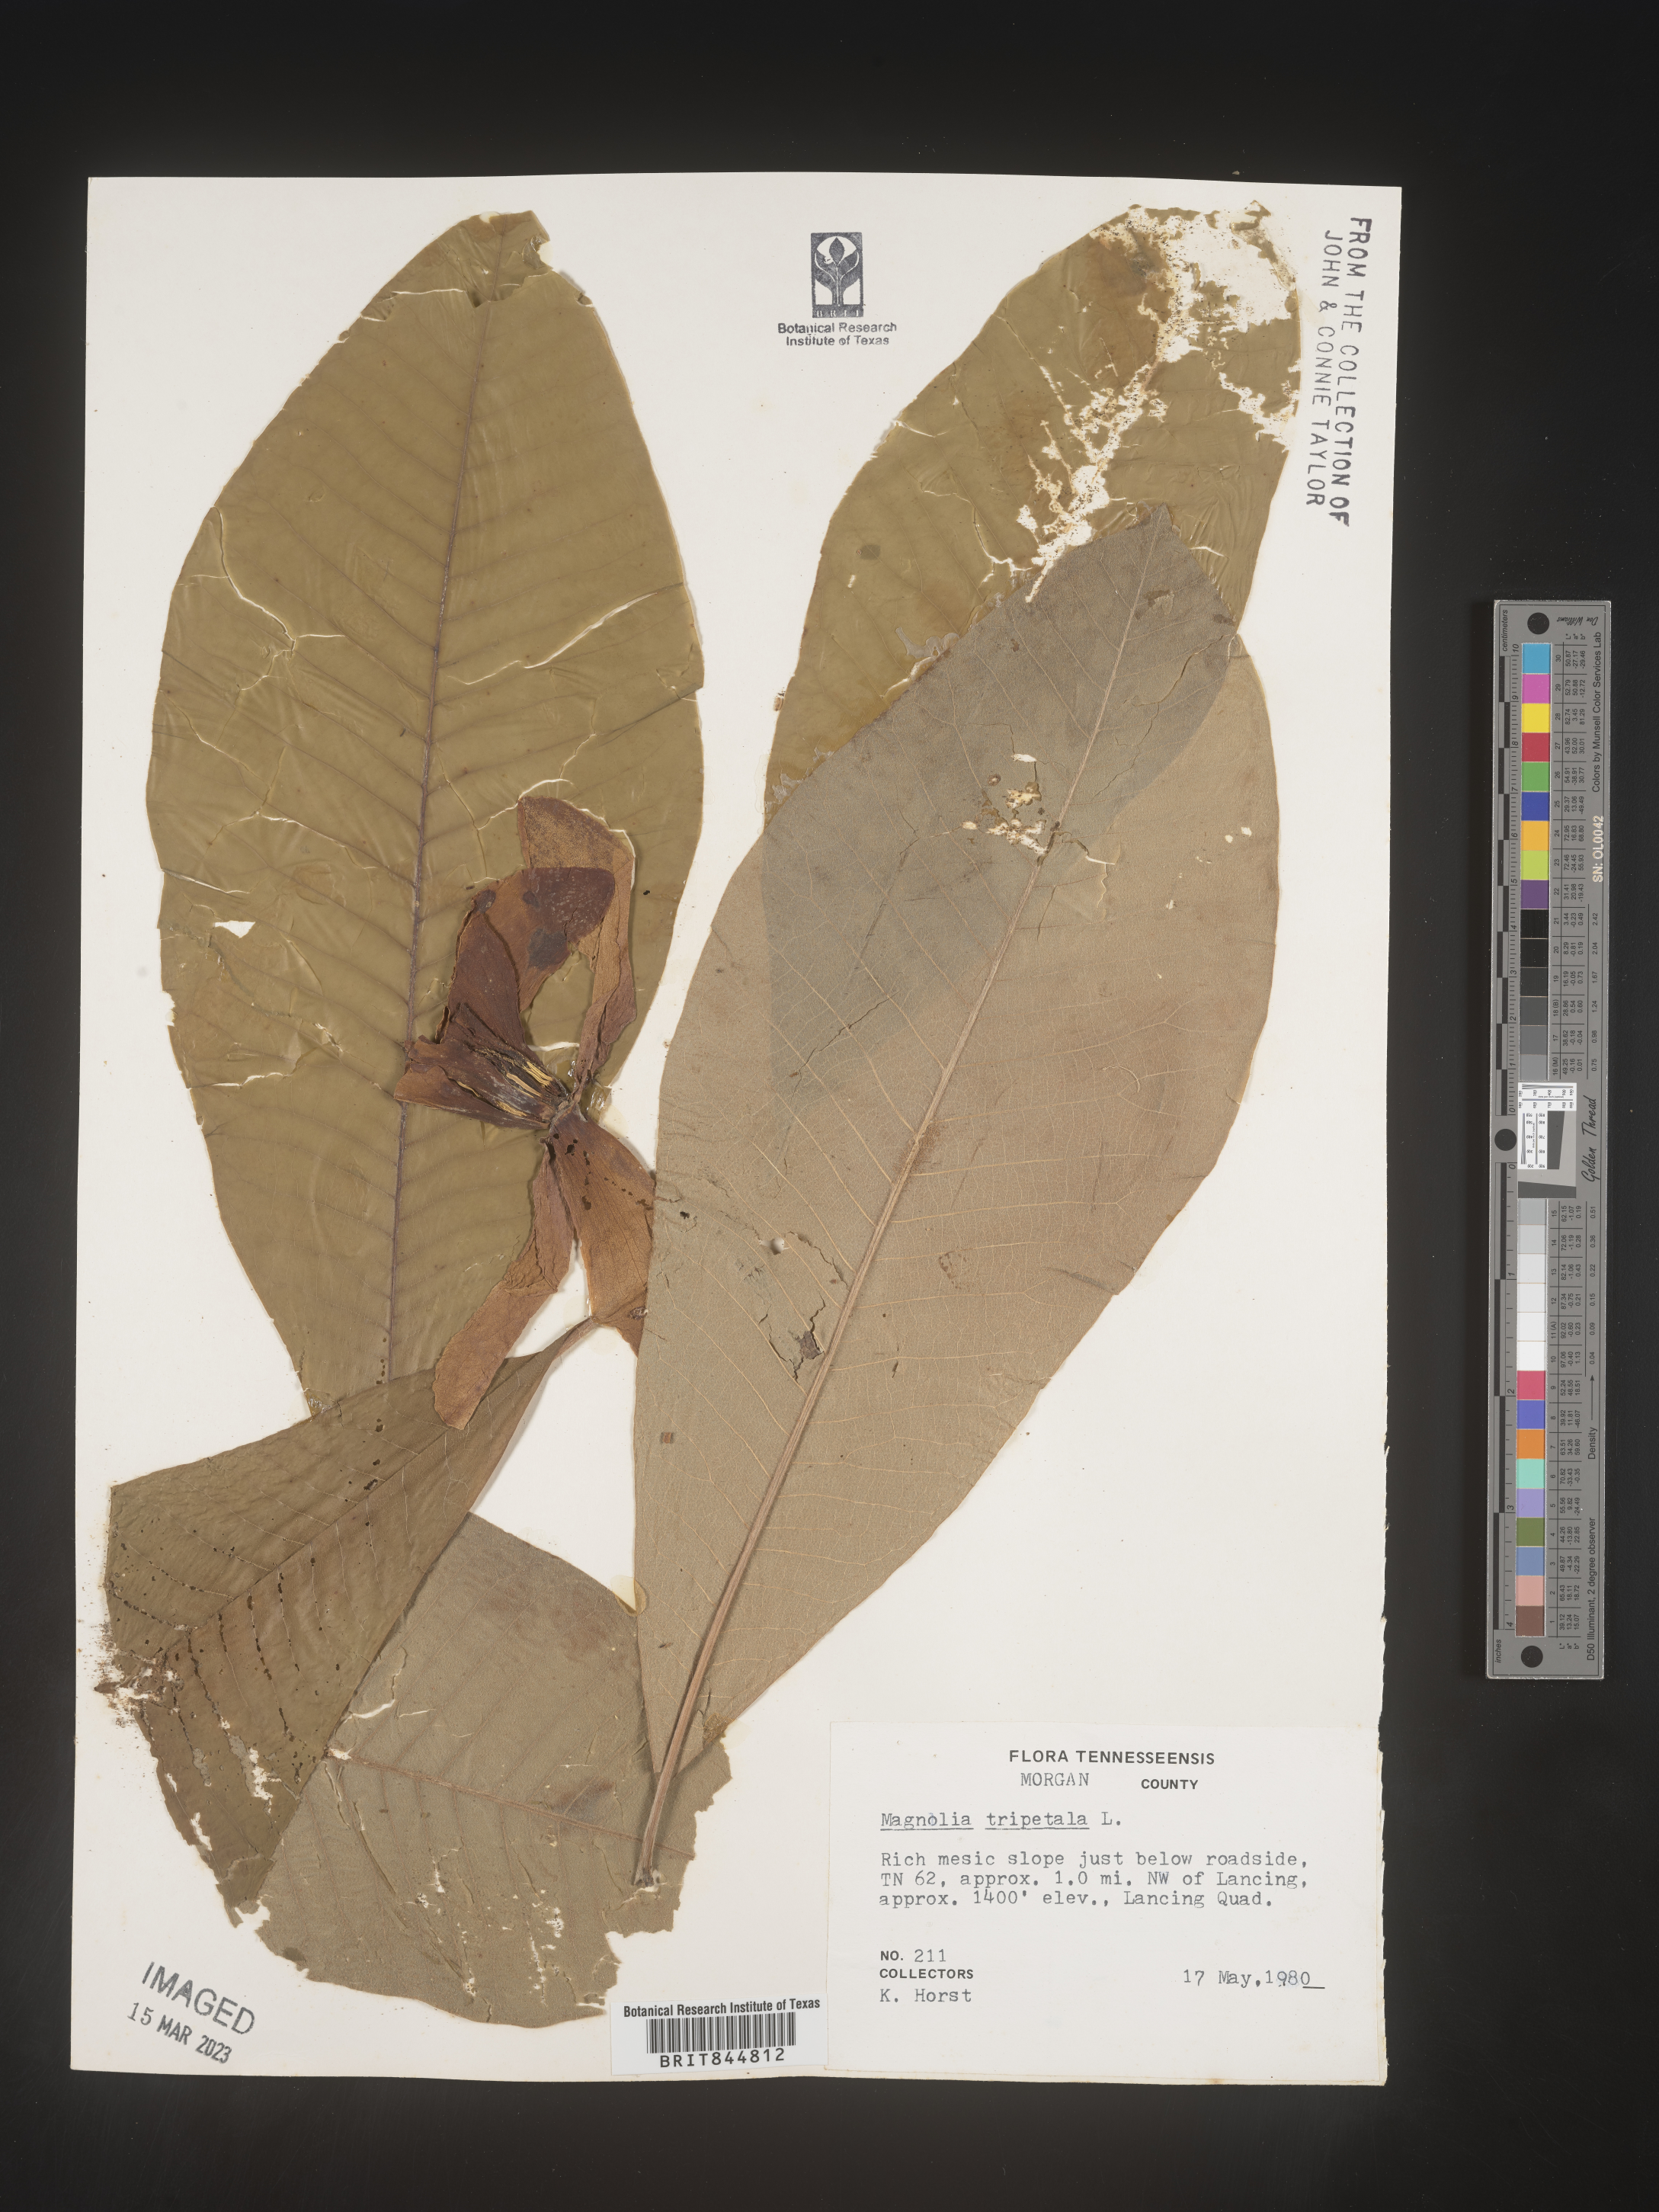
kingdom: Plantae
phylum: Tracheophyta
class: Magnoliopsida
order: Magnoliales
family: Magnoliaceae
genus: Magnolia
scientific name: Magnolia tripetala
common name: Umbrella magnolia
